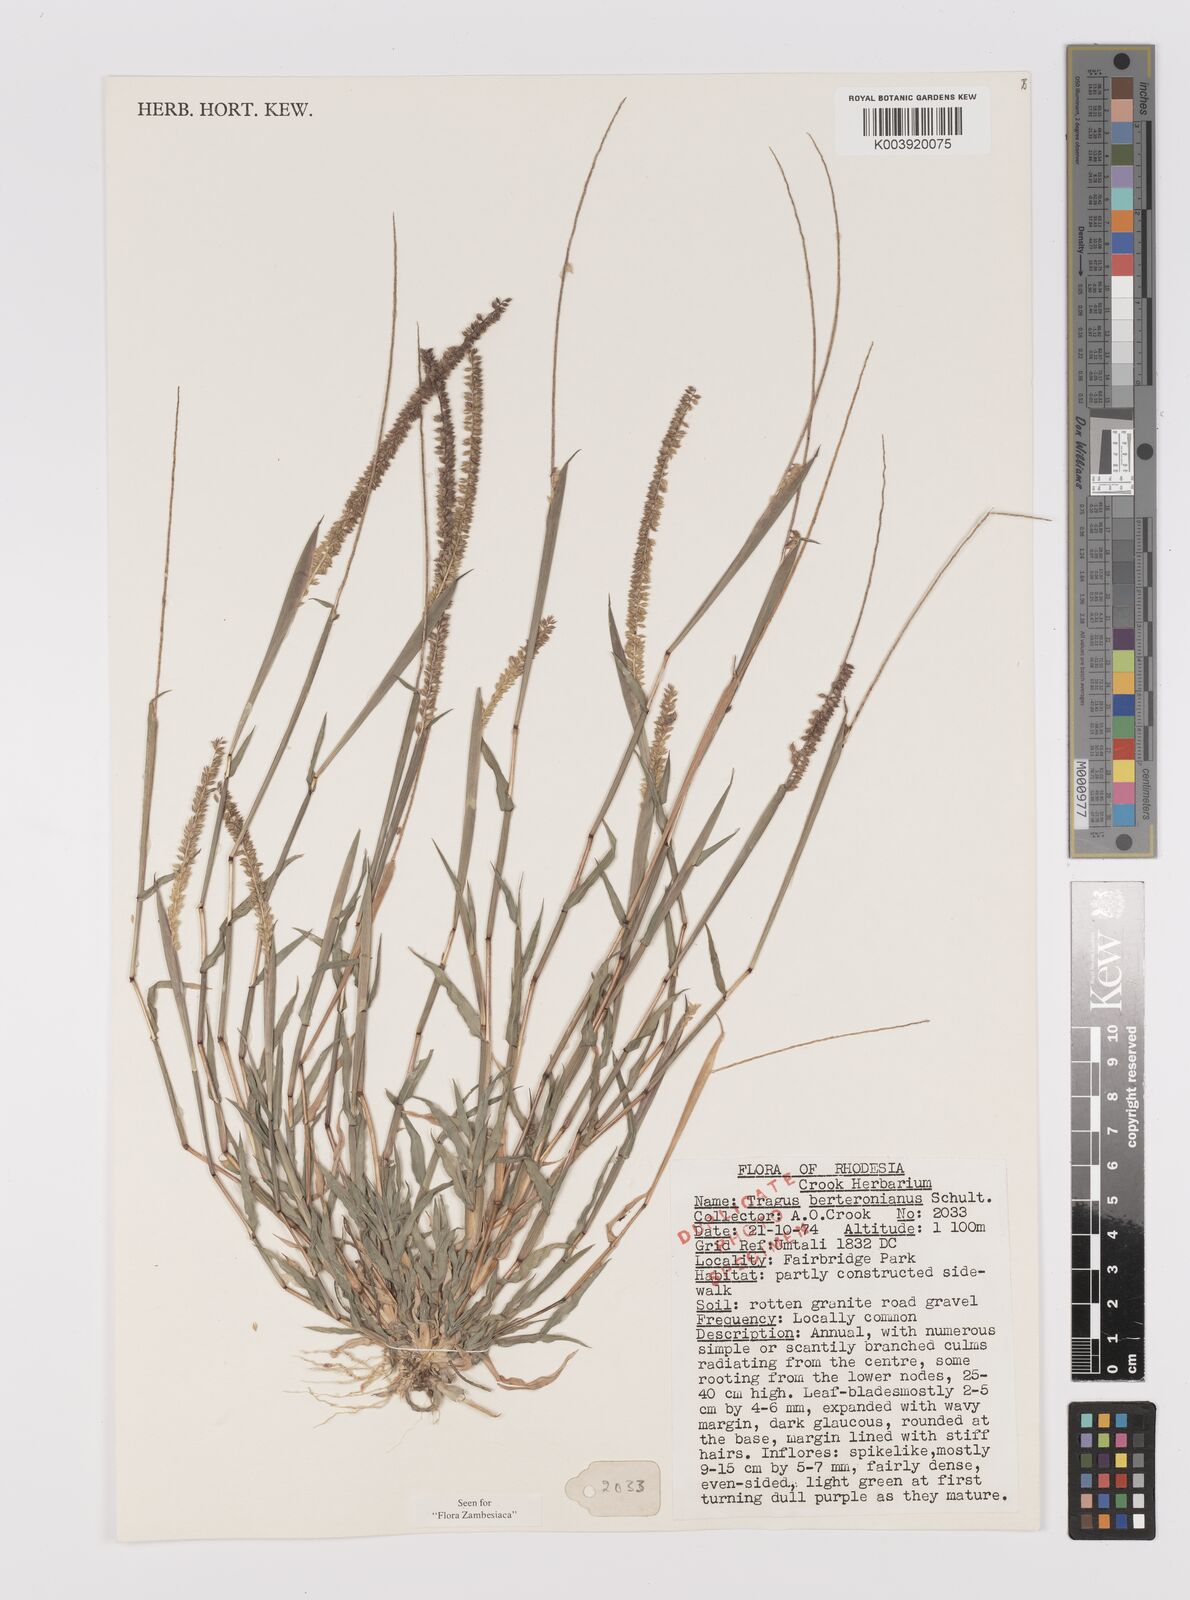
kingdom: Plantae
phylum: Tracheophyta
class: Liliopsida
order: Poales
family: Poaceae
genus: Tragus
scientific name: Tragus berteronianus
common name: African bur-grass
